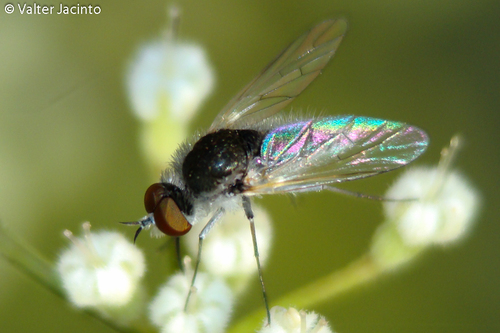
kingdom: Animalia
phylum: Arthropoda
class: Insecta
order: Diptera
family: Bombyliidae
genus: Geron
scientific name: Geron
